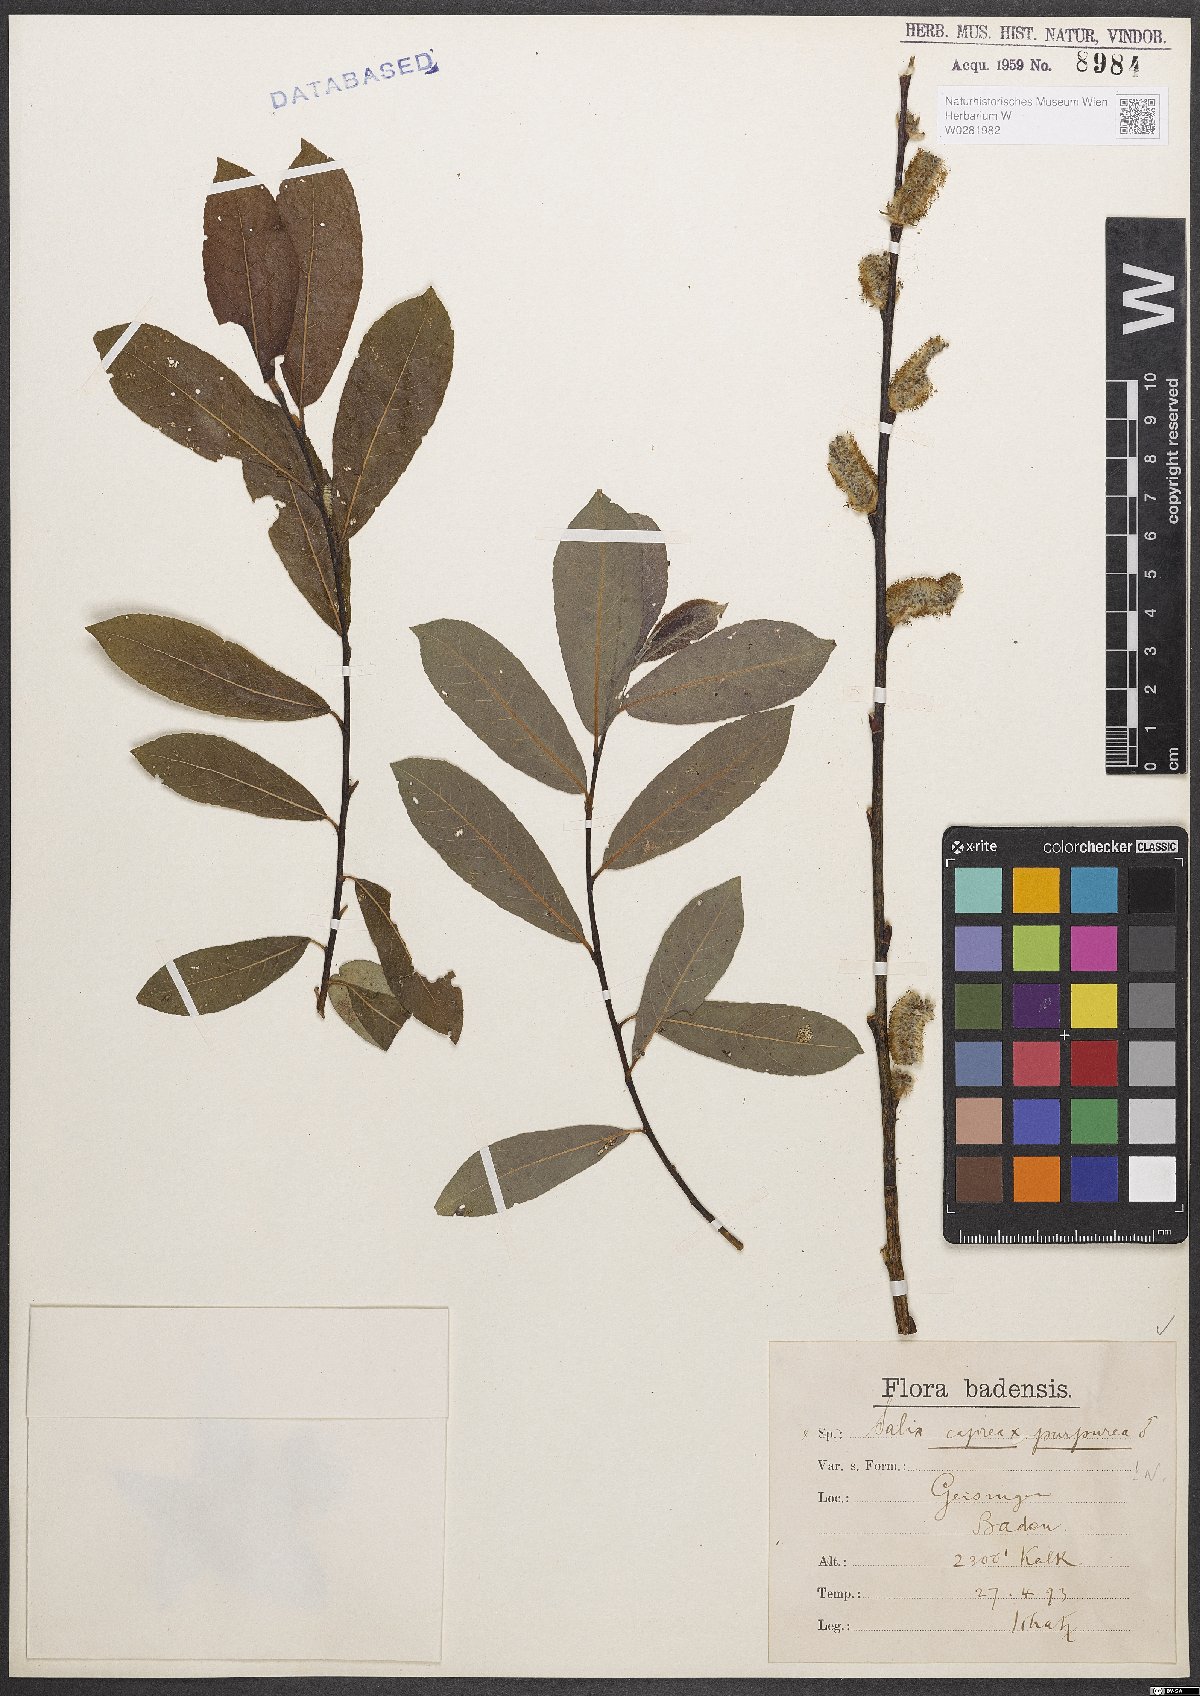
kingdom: Plantae
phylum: Tracheophyta
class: Magnoliopsida
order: Malpighiales
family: Salicaceae
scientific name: Salicaceae
